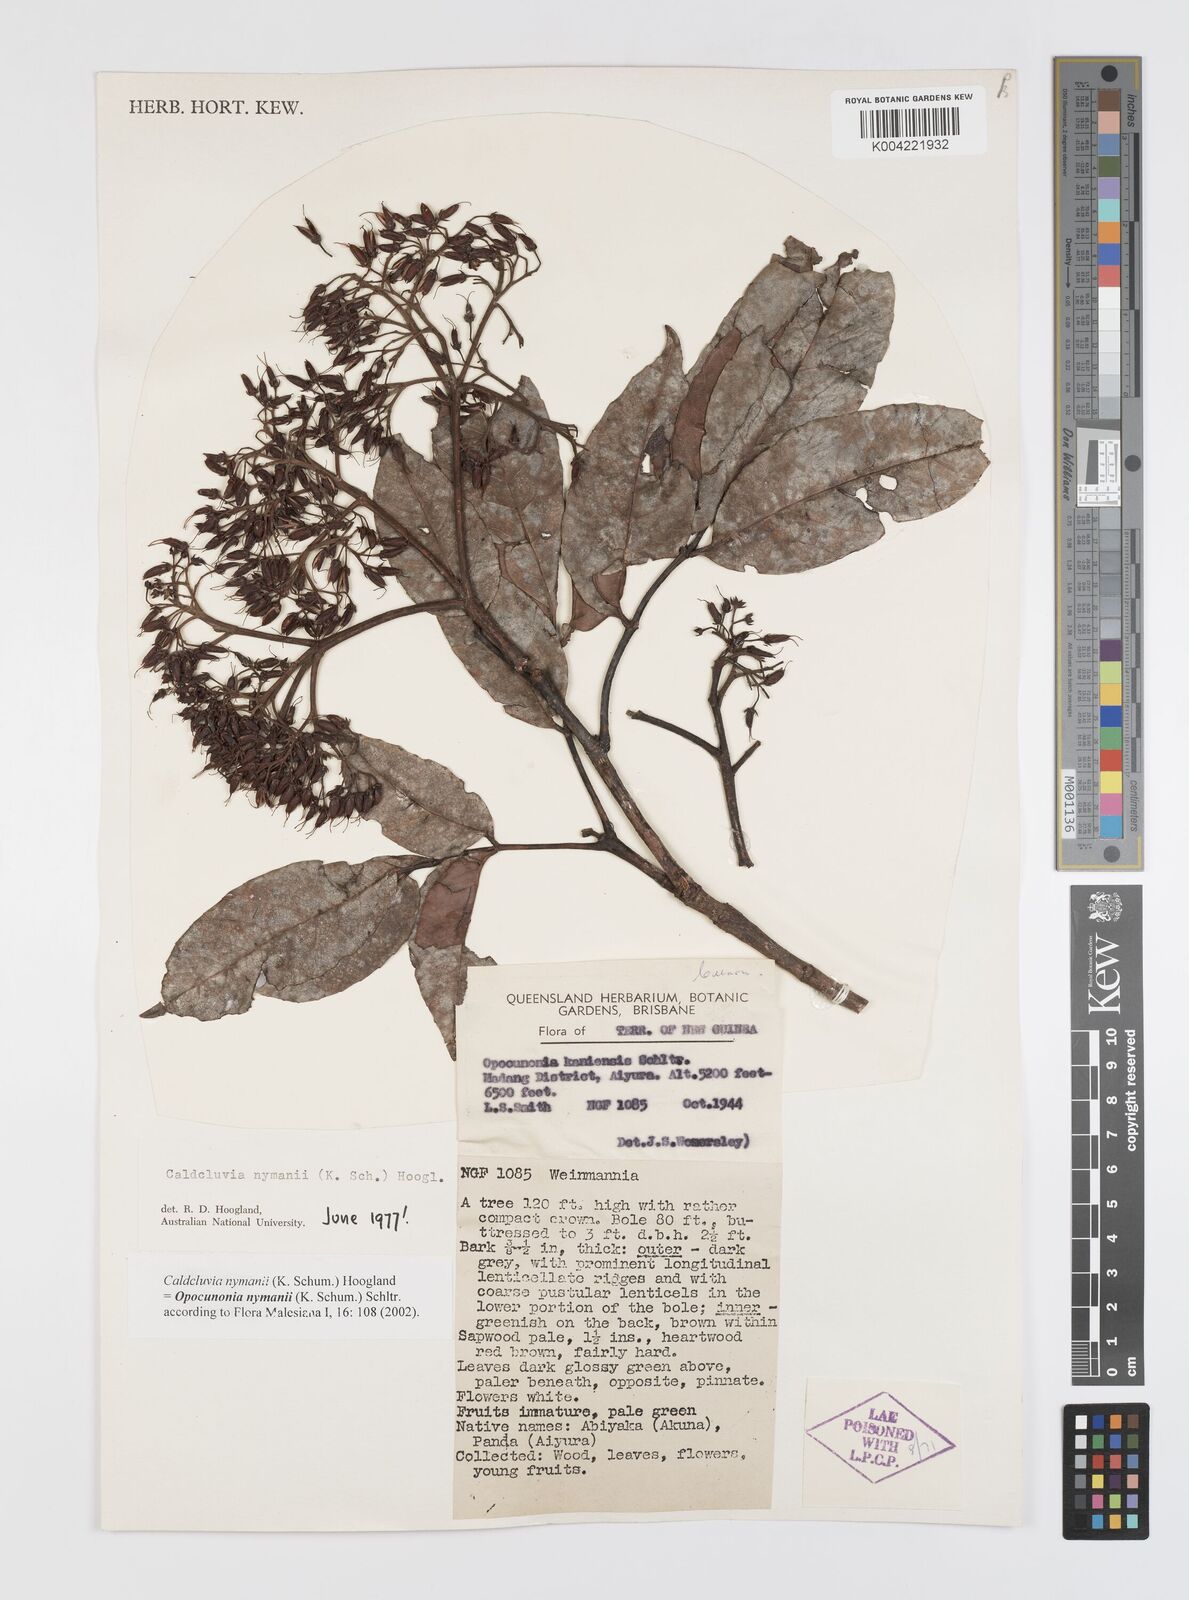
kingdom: Plantae
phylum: Tracheophyta
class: Magnoliopsida
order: Oxalidales
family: Cunoniaceae
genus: Opocunonia
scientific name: Opocunonia nymanii
